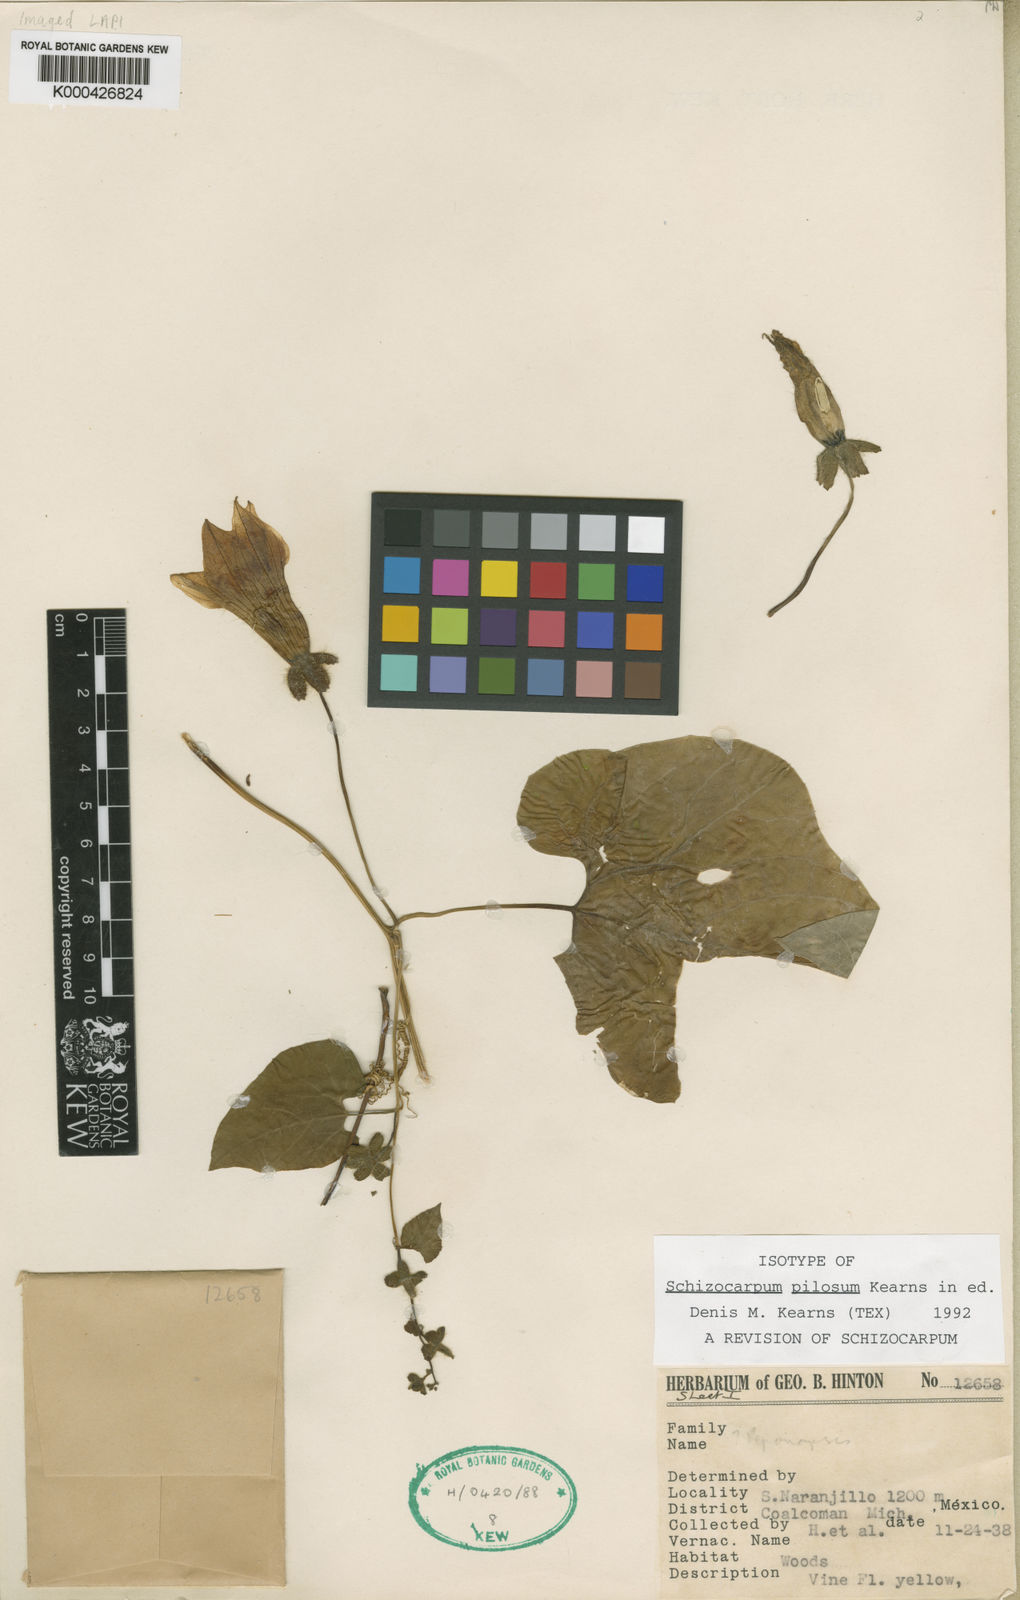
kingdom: Plantae
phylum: Tracheophyta
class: Magnoliopsida
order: Cucurbitales
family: Cucurbitaceae
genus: Schizocarpum
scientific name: Schizocarpum pilosum
